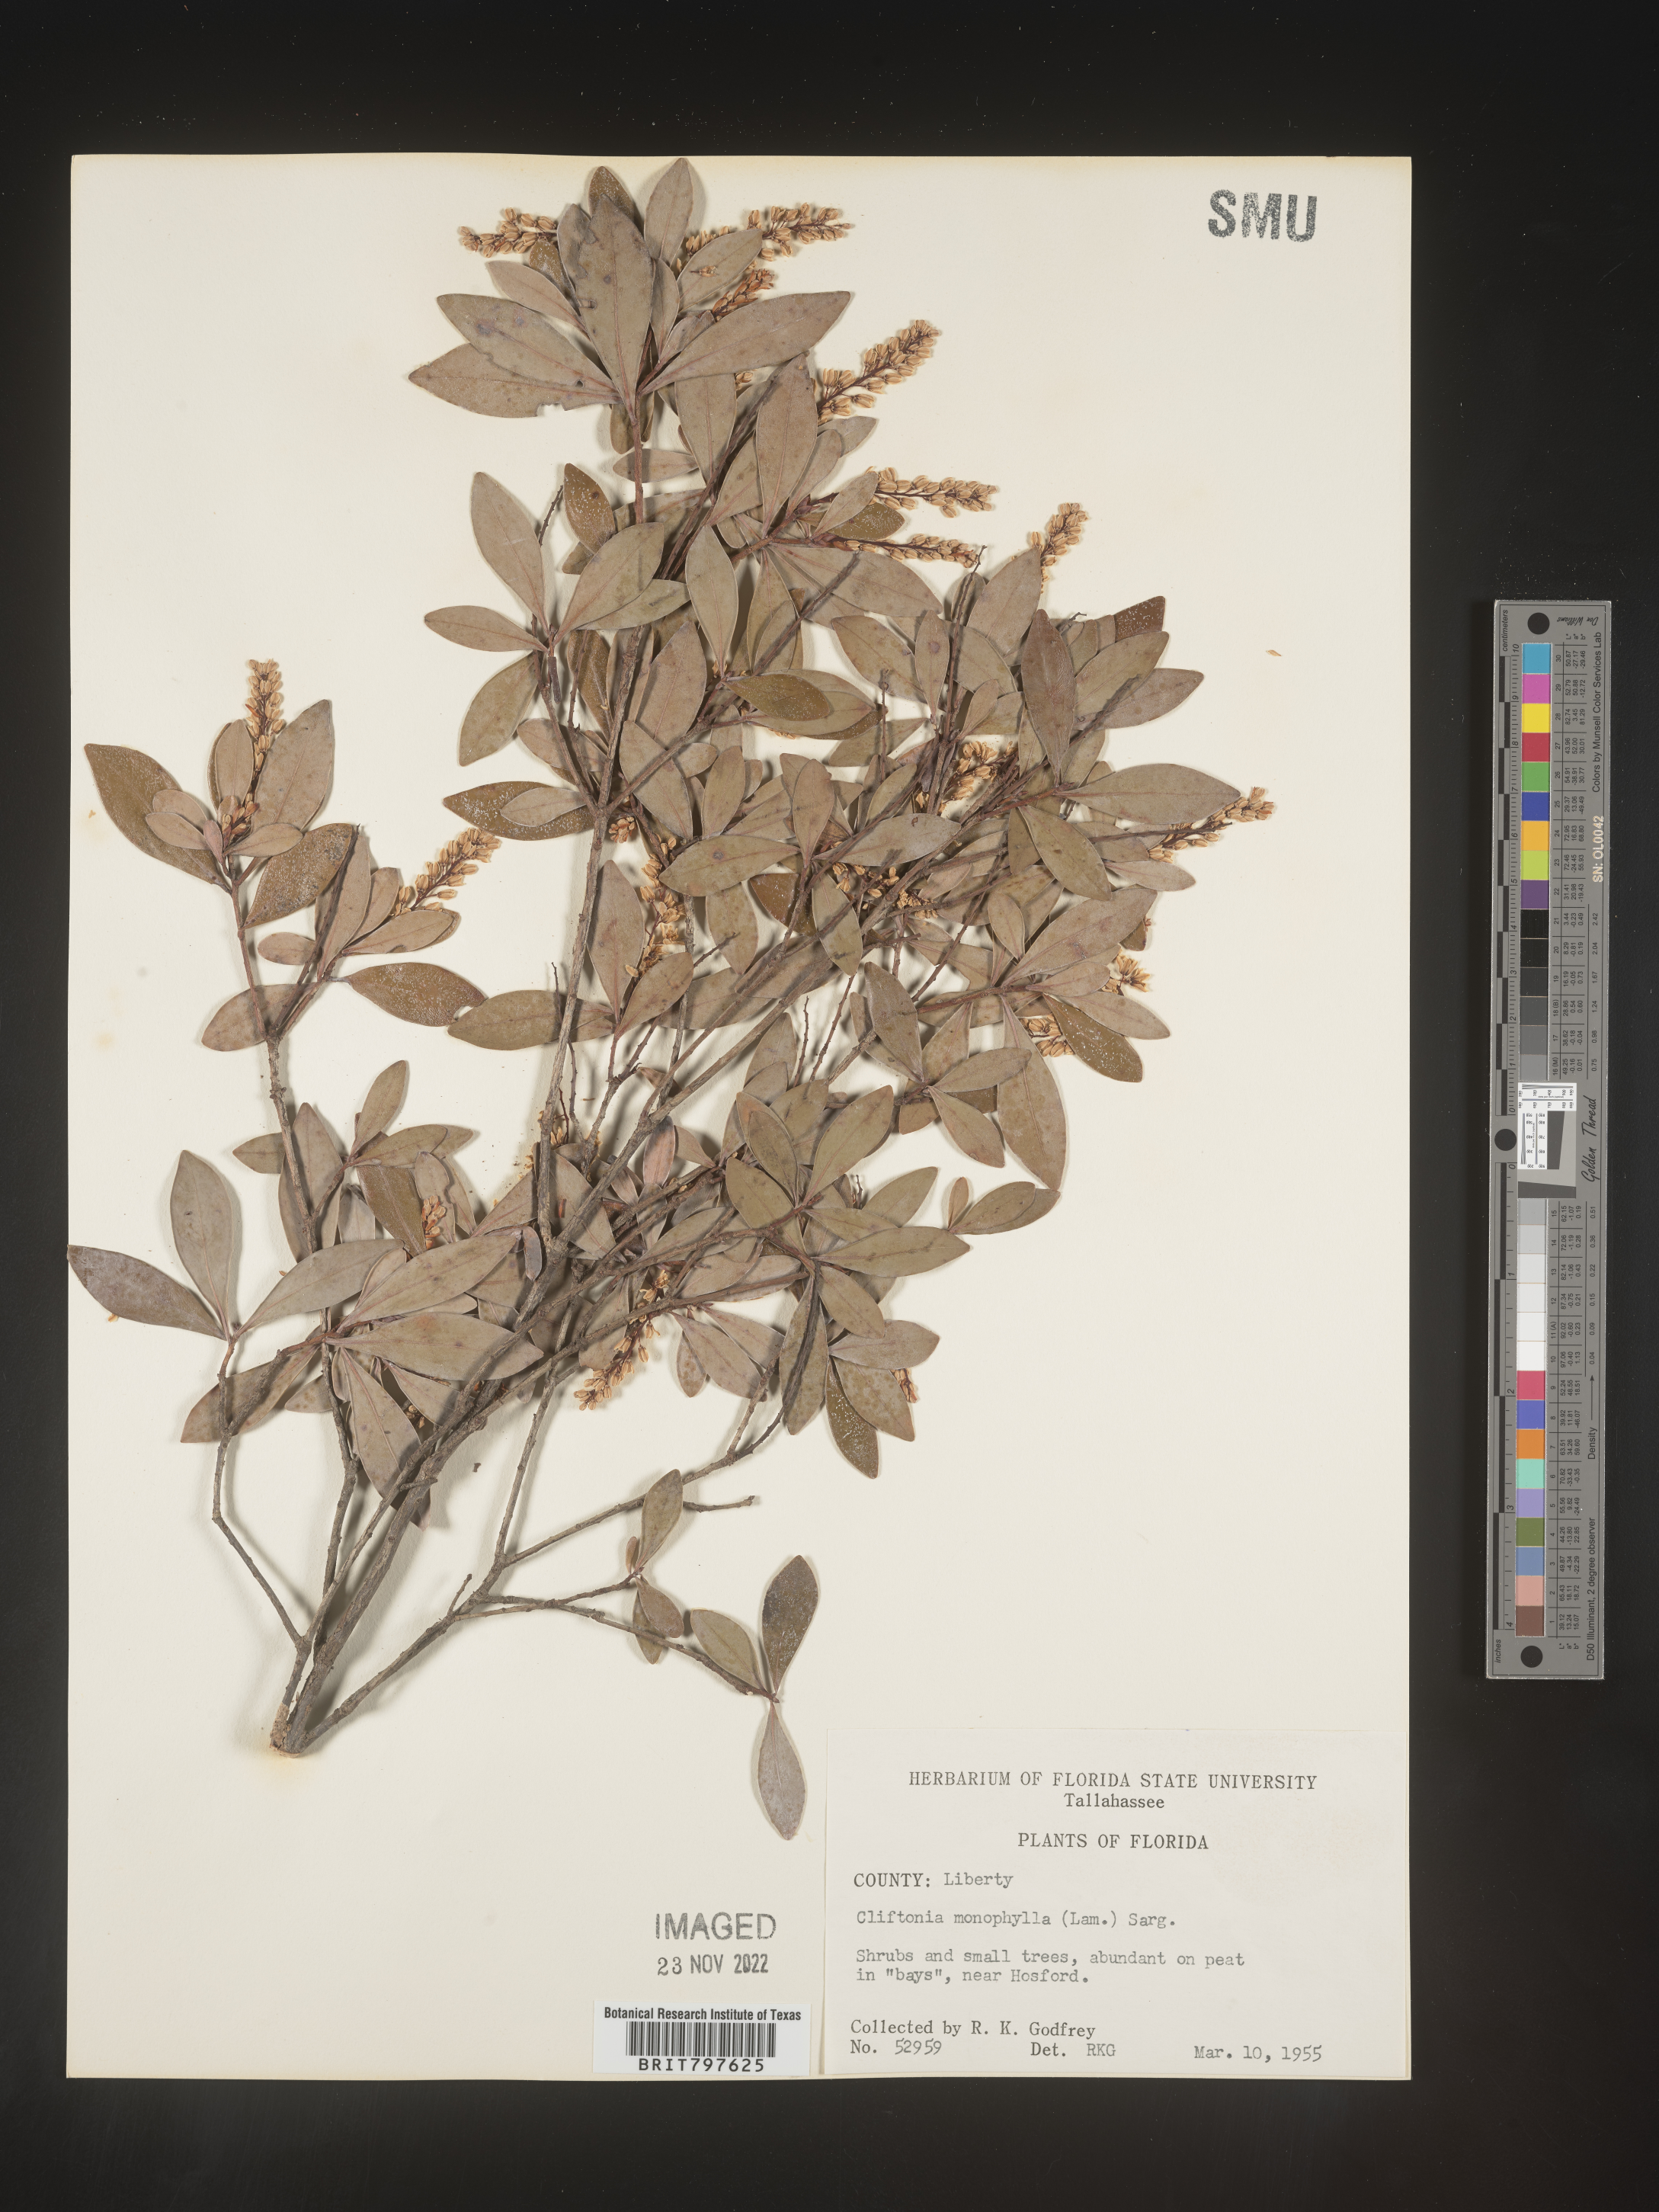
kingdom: Plantae
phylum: Tracheophyta
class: Magnoliopsida
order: Ericales
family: Cyrillaceae
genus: Cliftonia
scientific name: Cliftonia monophylla
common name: Titi
